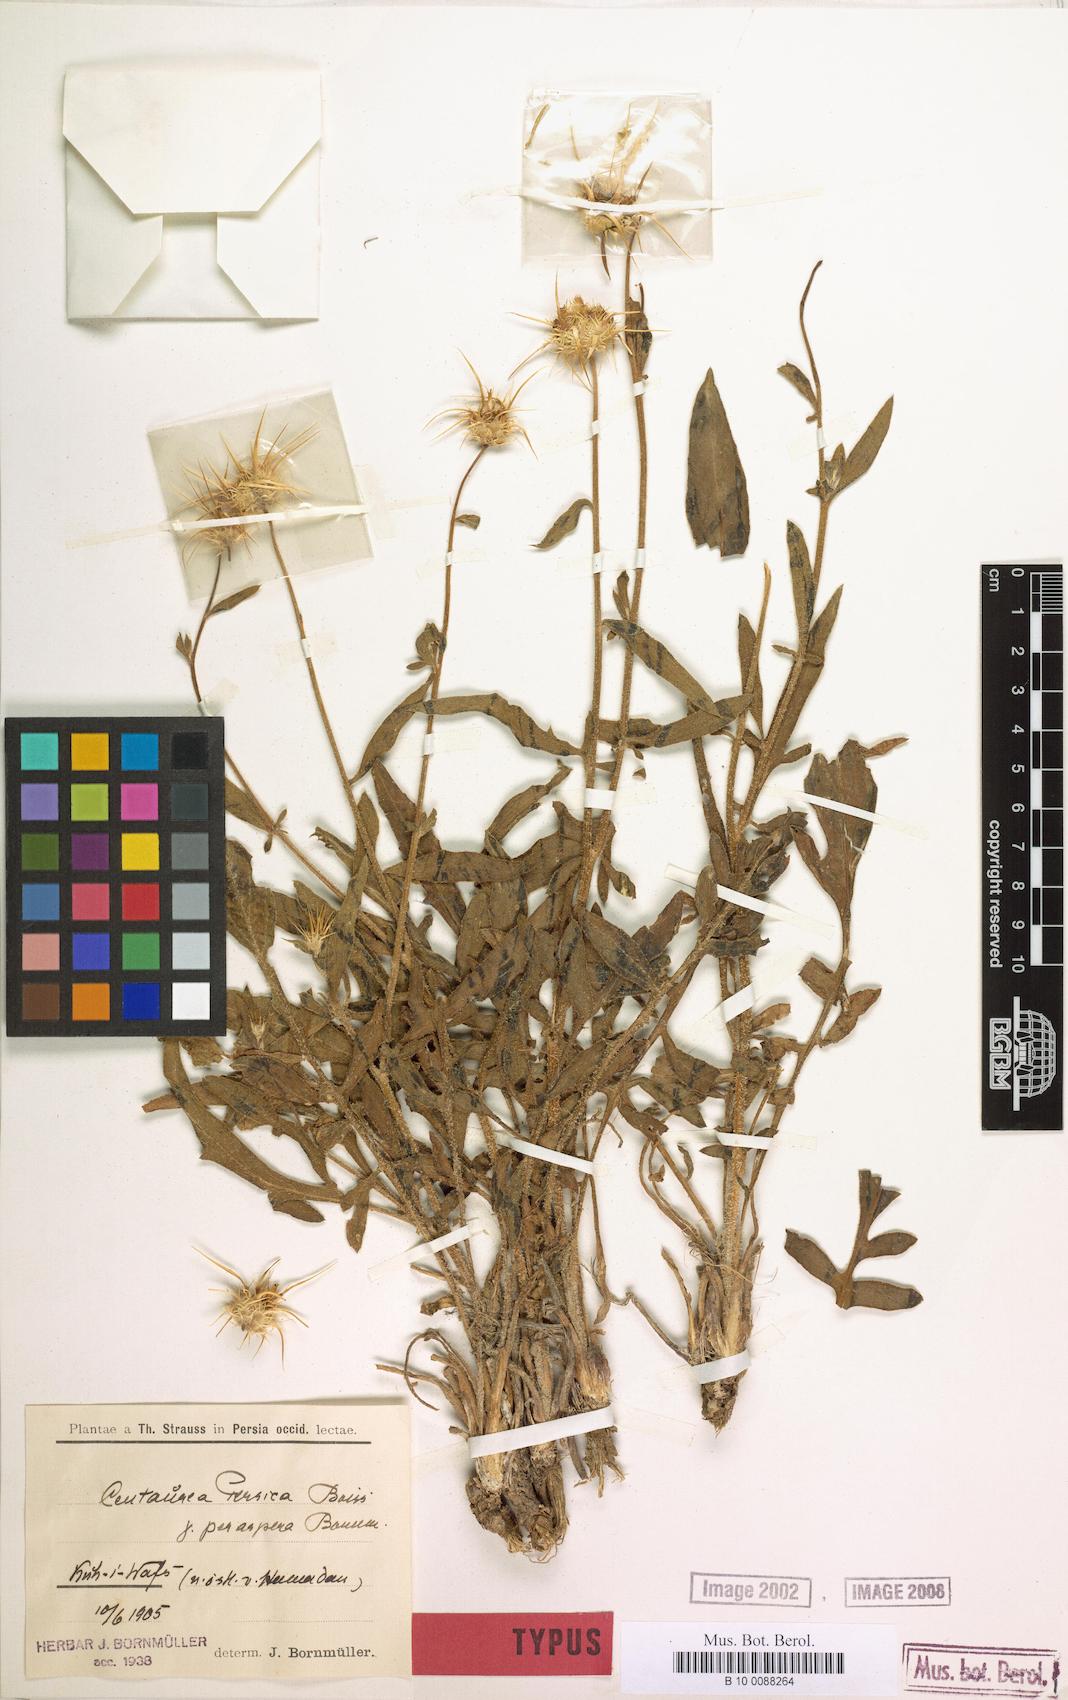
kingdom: Plantae
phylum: Tracheophyta
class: Magnoliopsida
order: Asterales
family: Asteraceae
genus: Centaurea
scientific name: Centaurea persica
